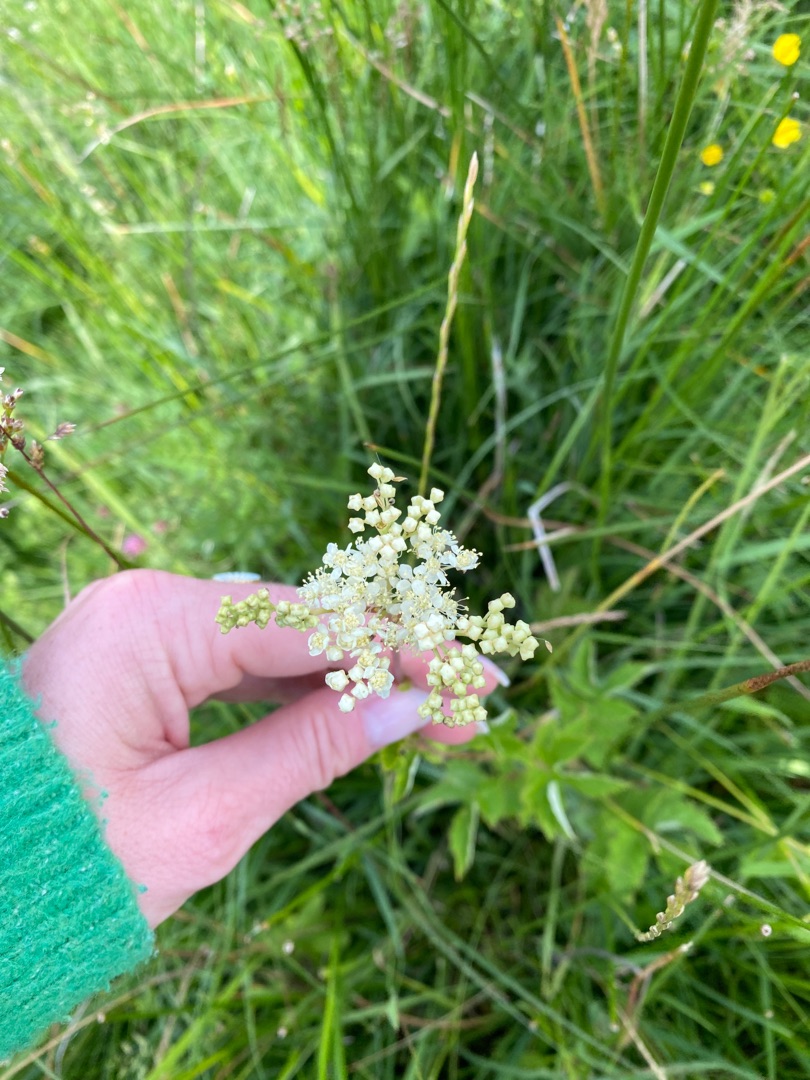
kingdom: Plantae
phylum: Tracheophyta
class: Magnoliopsida
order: Rosales
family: Rosaceae
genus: Filipendula
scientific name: Filipendula ulmaria
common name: Almindelig mjødurt
